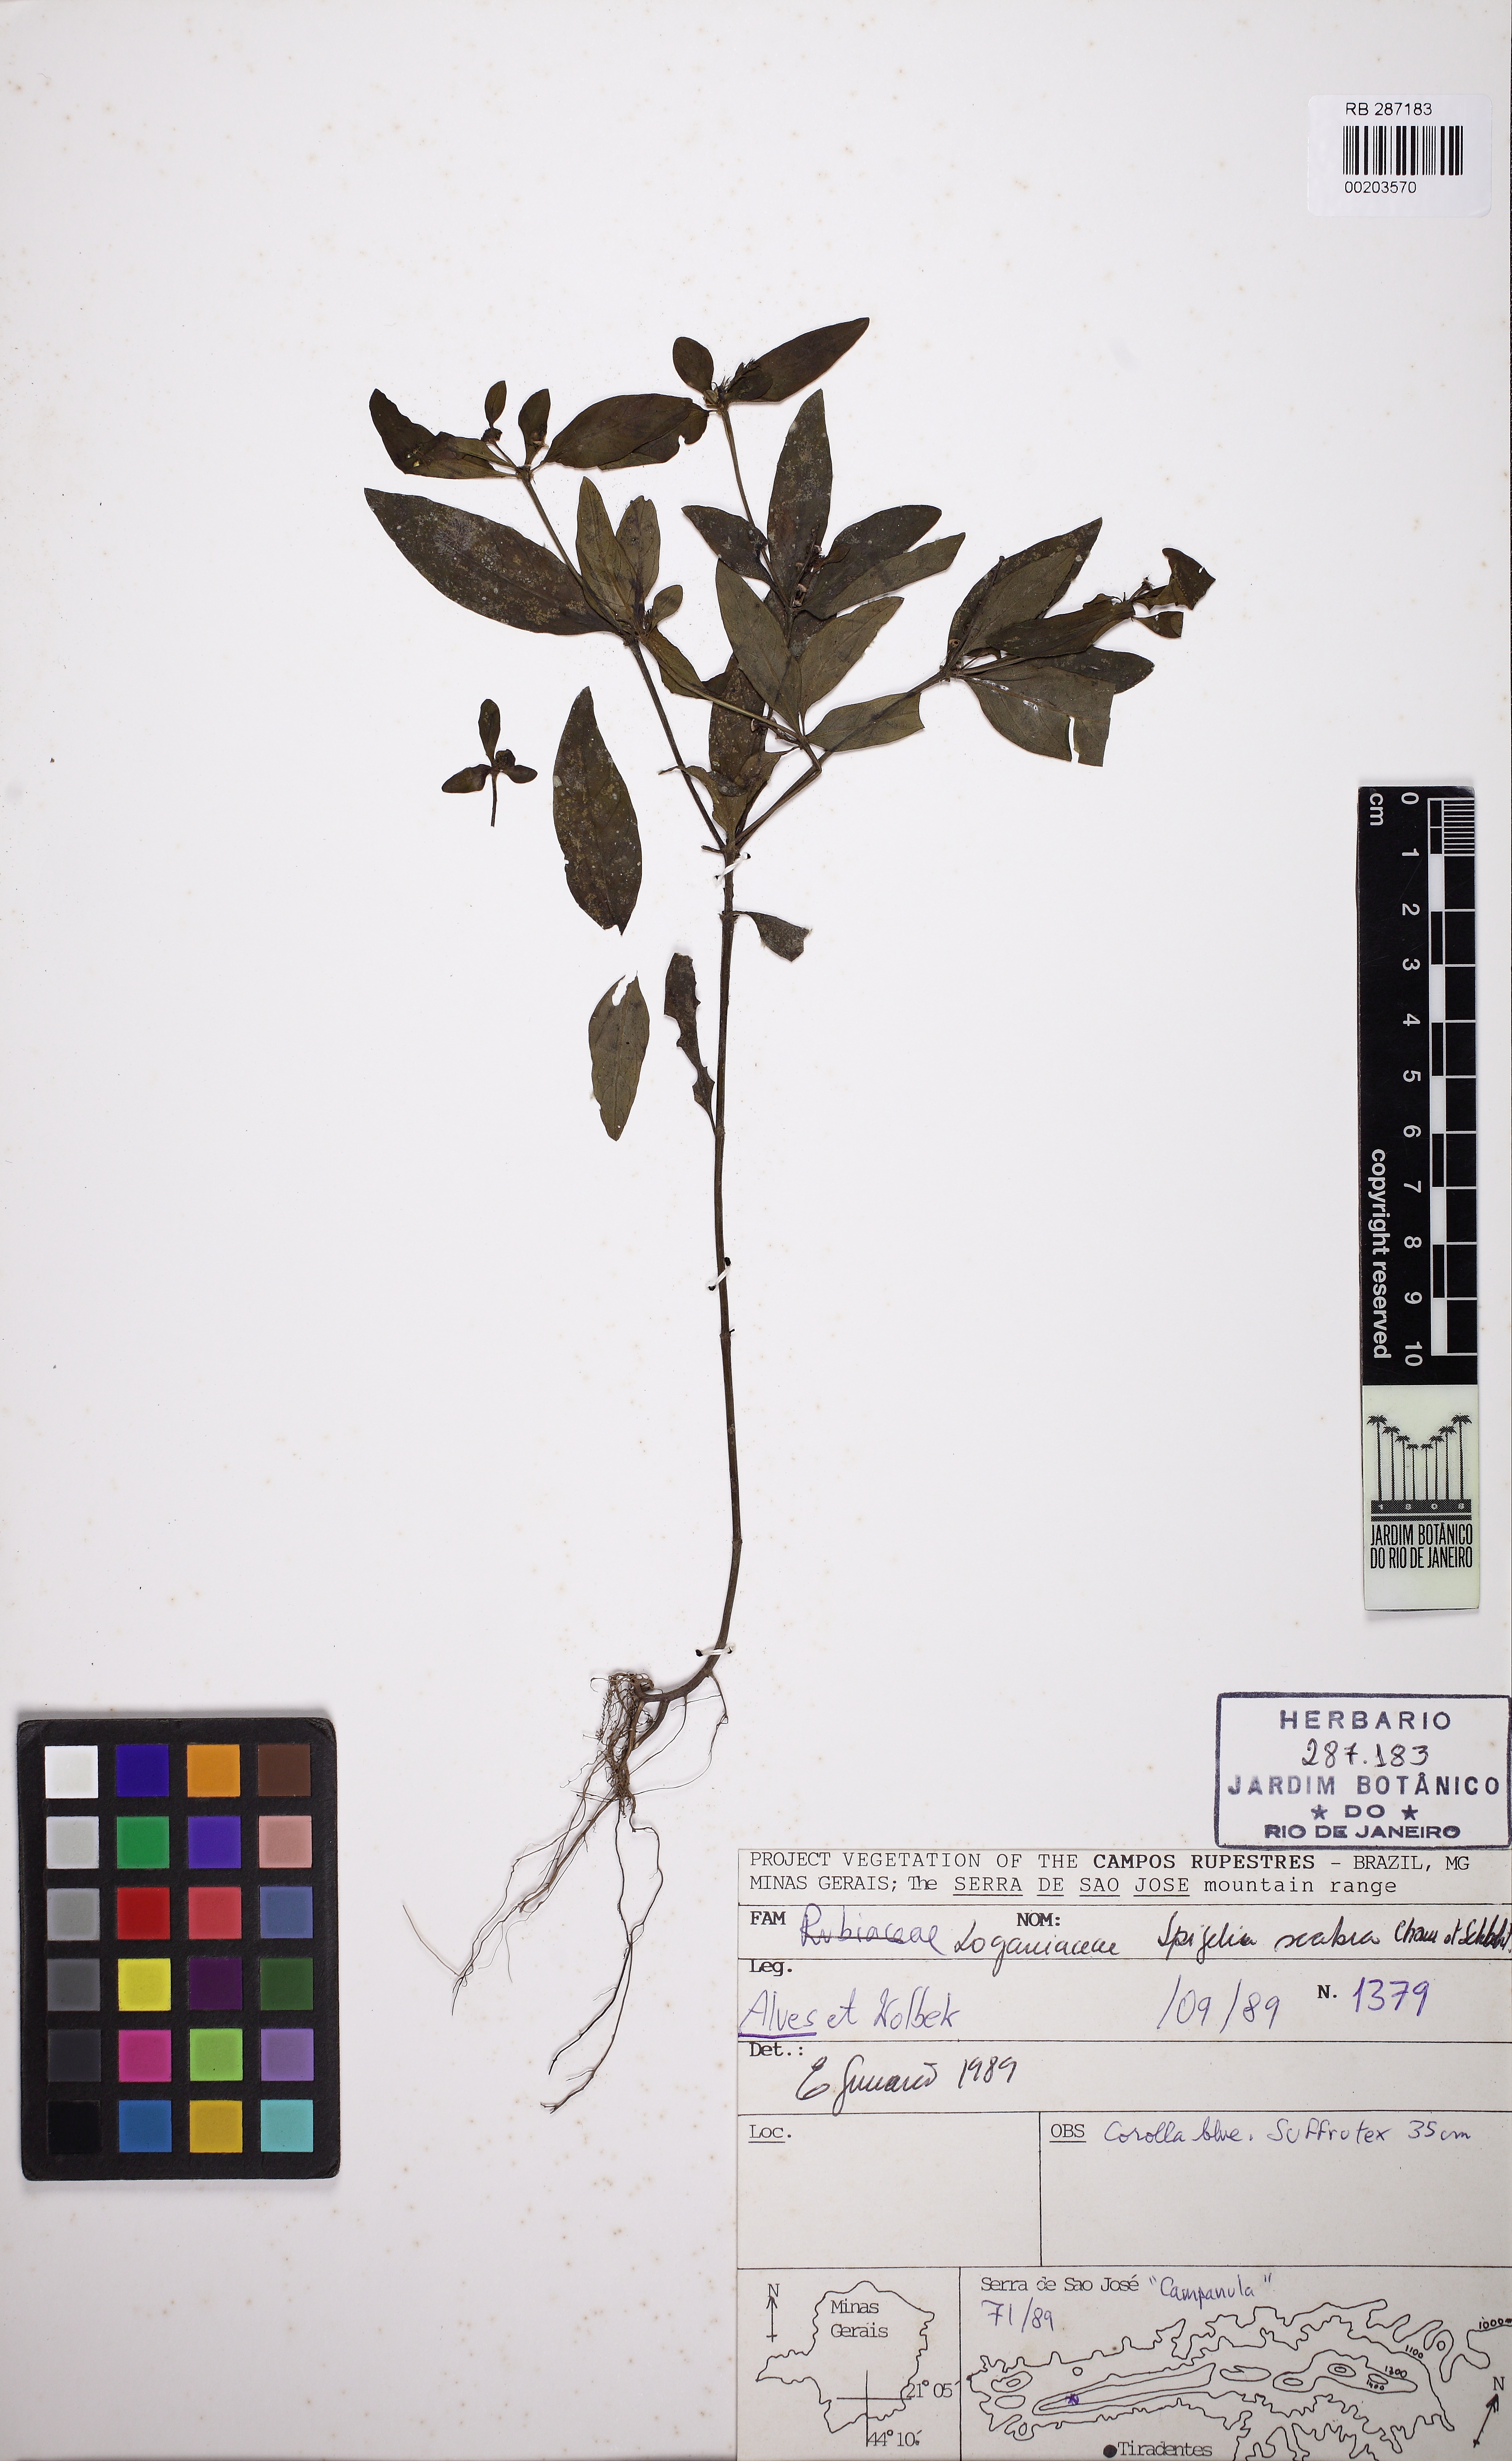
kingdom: Plantae
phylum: Tracheophyta
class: Magnoliopsida
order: Gentianales
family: Loganiaceae
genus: Spigelia
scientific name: Spigelia humboldtiana
